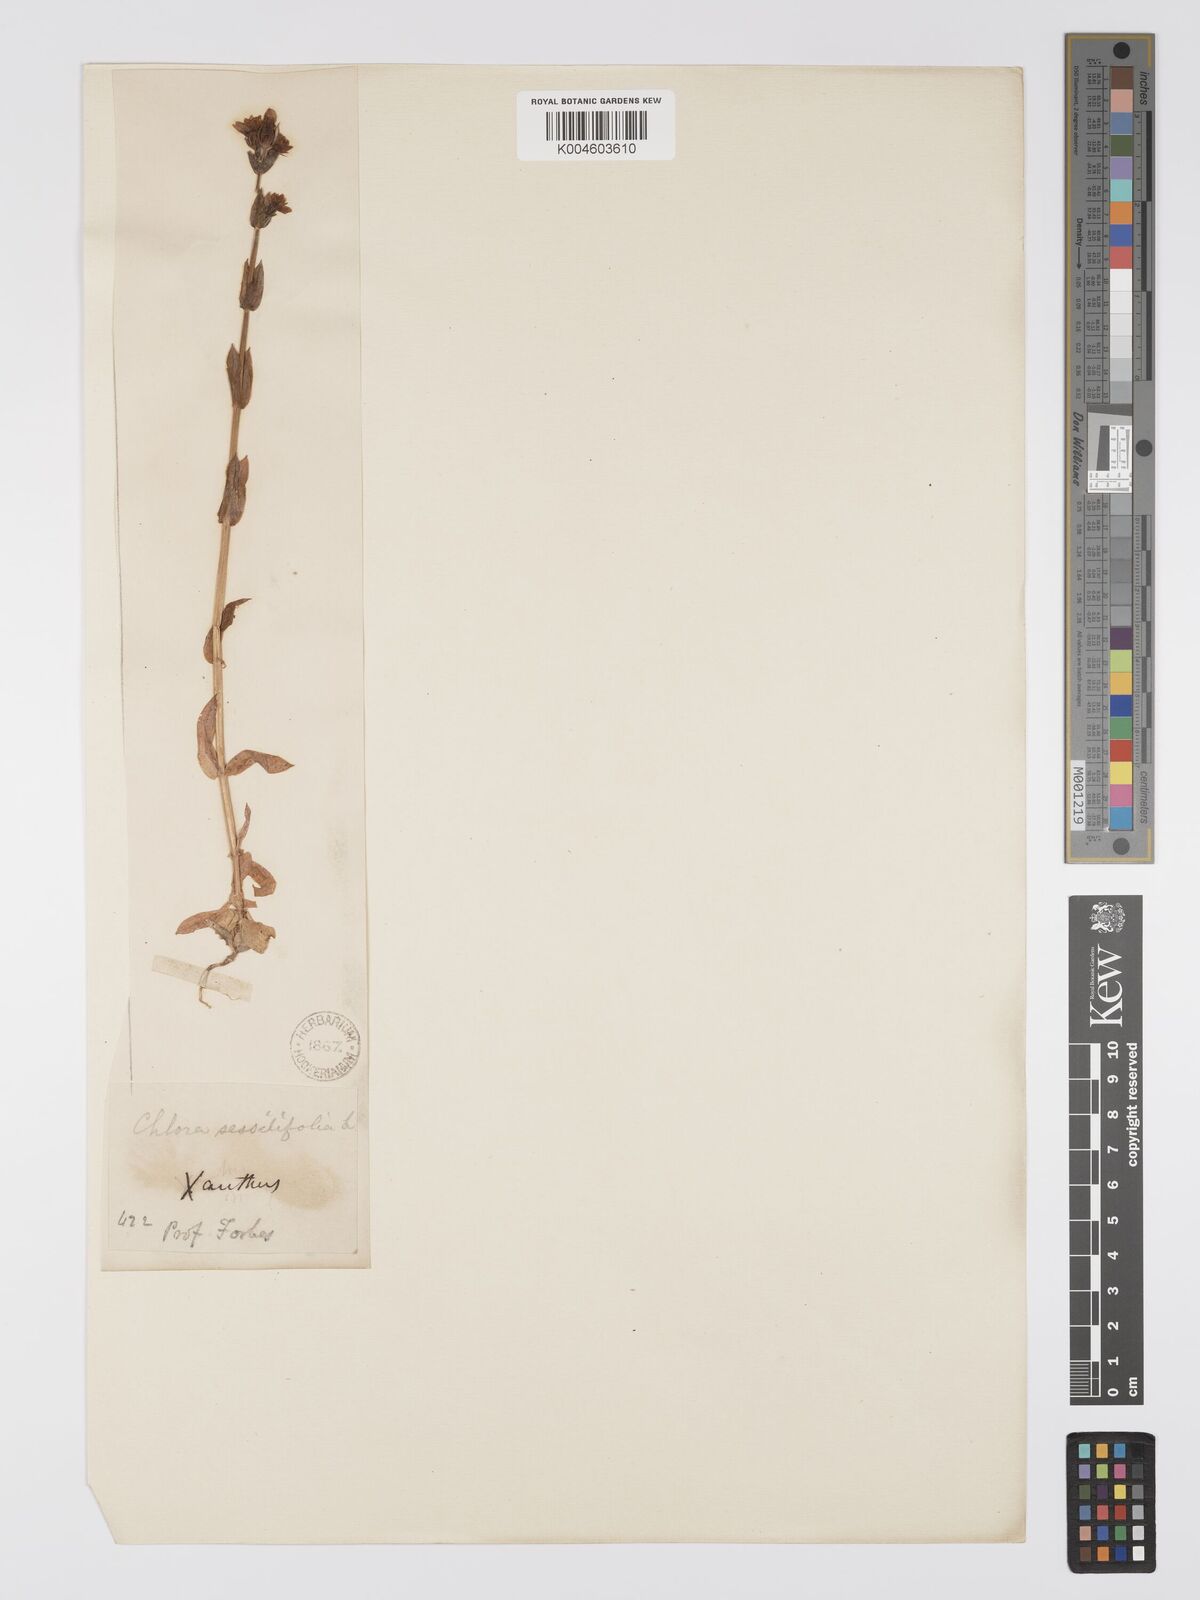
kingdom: Plantae
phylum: Tracheophyta
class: Magnoliopsida
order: Gentianales
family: Gentianaceae
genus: Blackstonia
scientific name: Blackstonia acuminata
